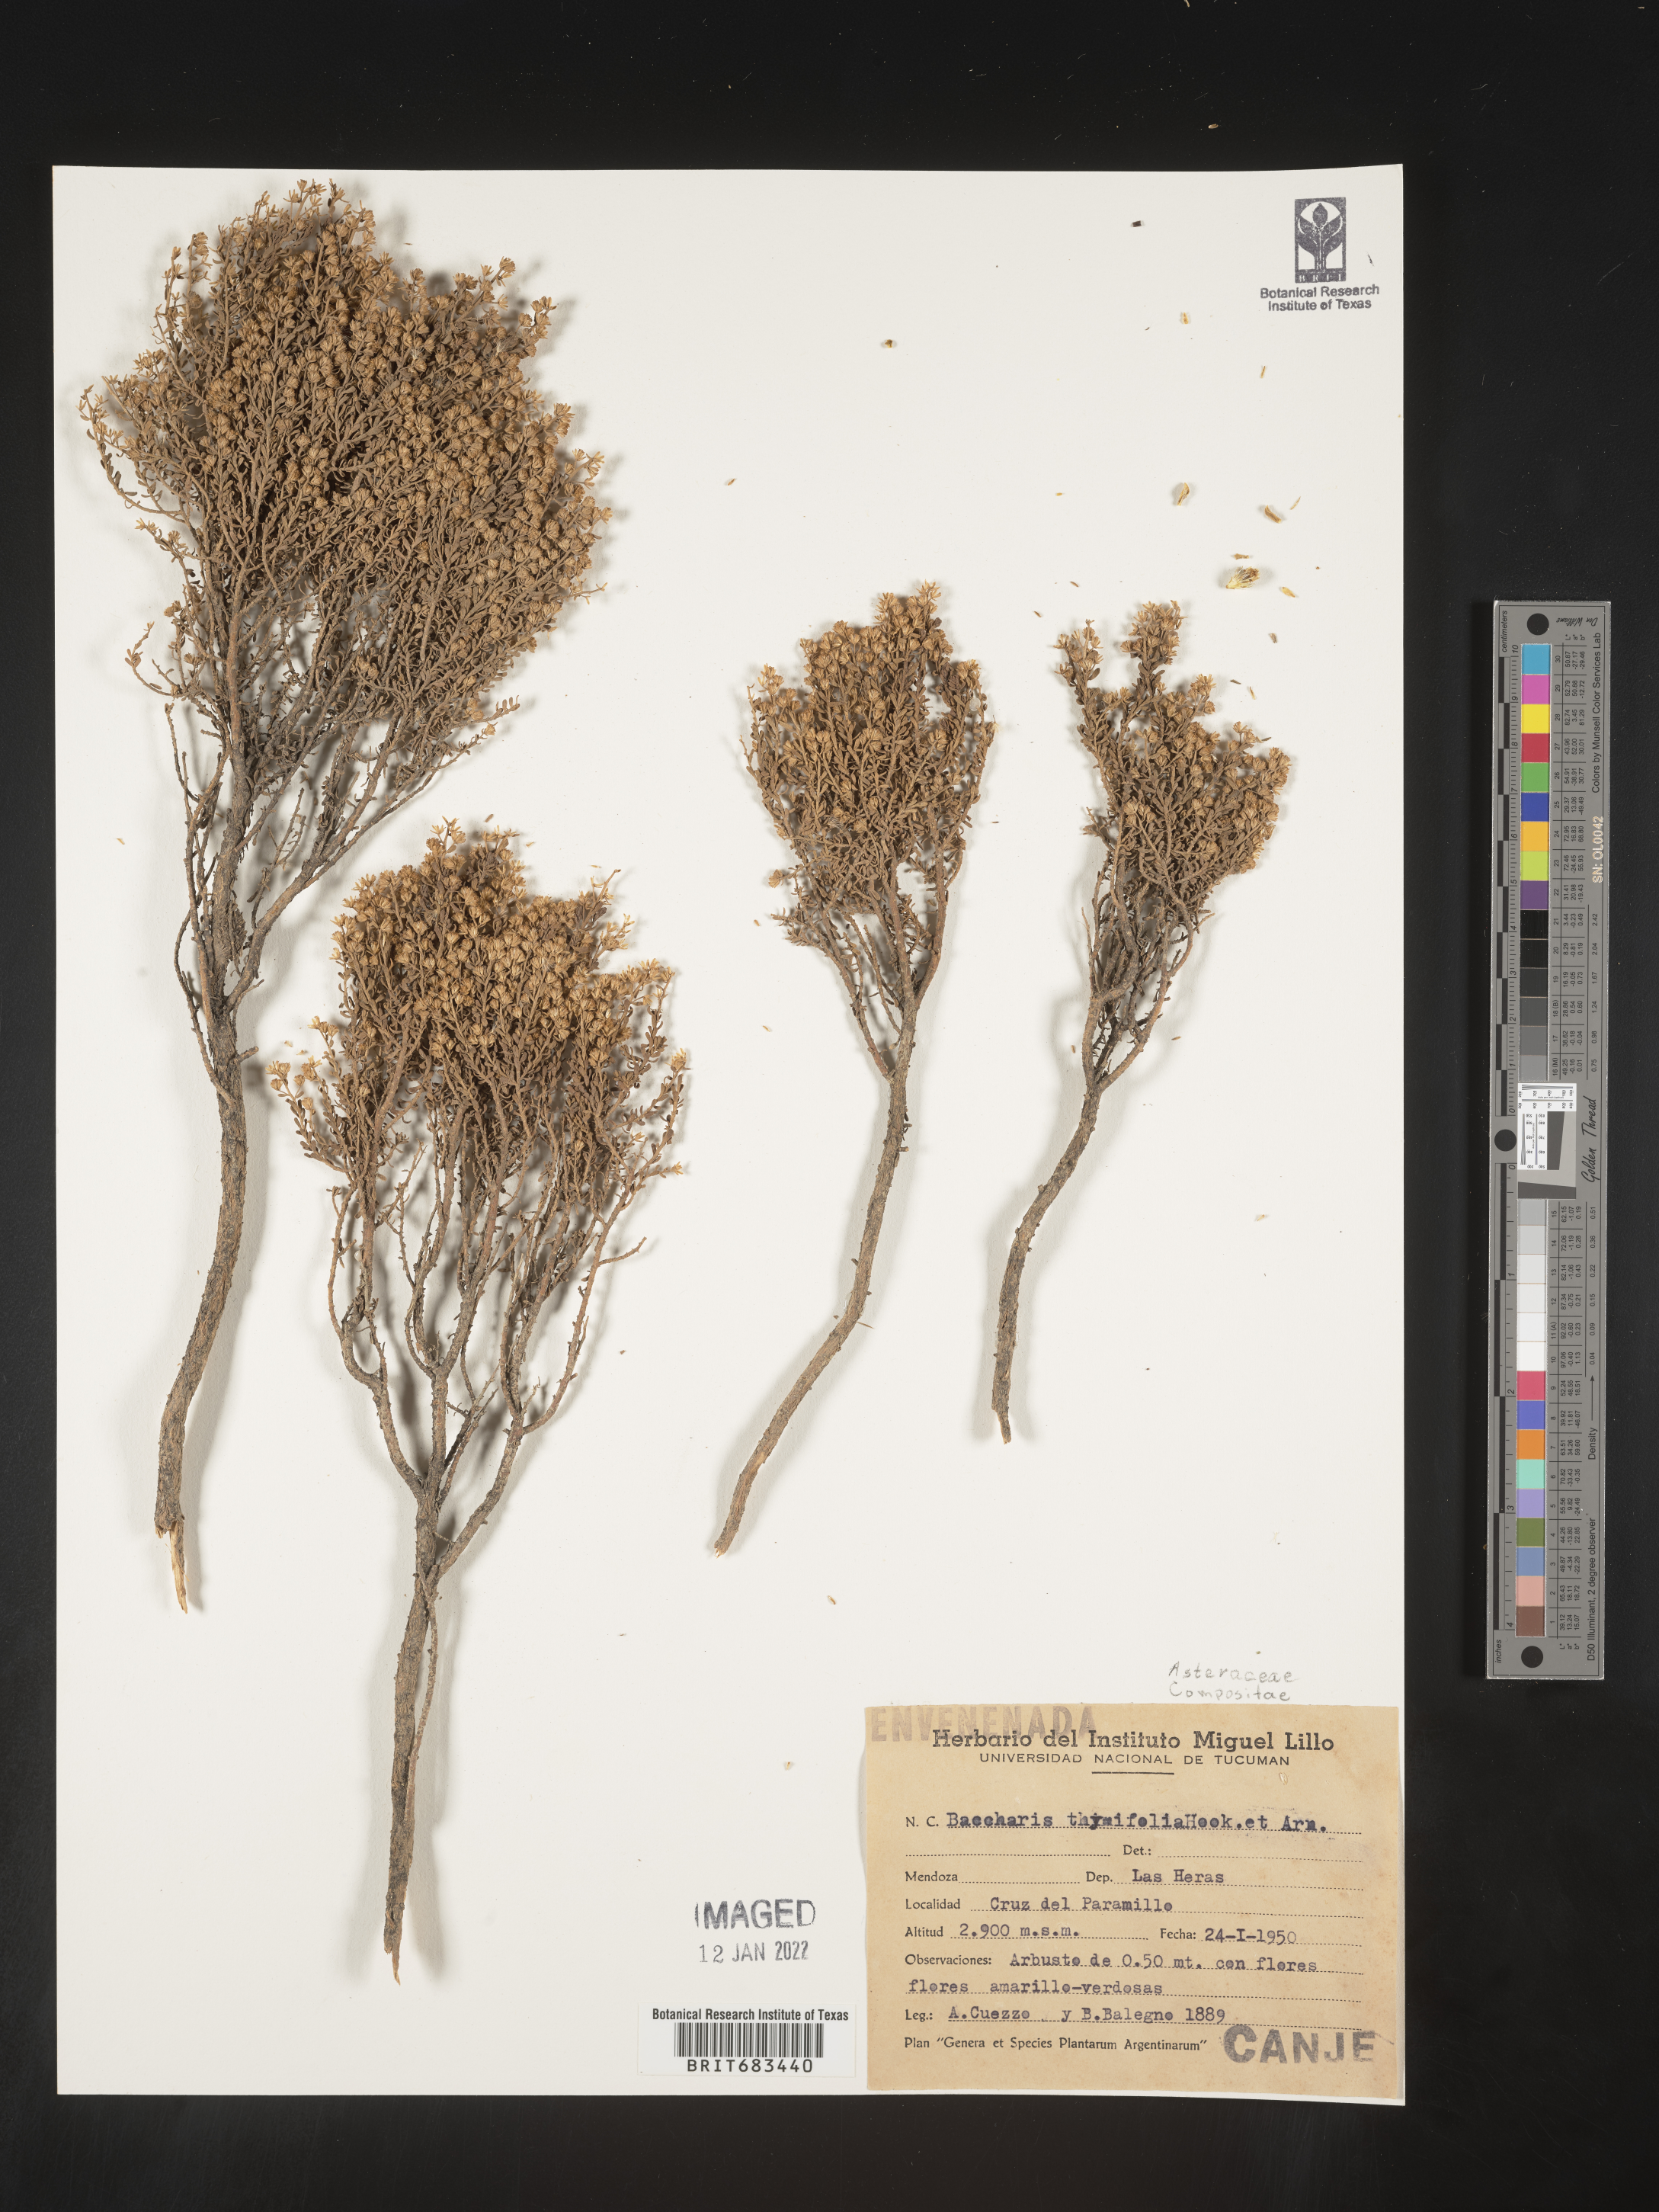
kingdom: Plantae
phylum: Tracheophyta
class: Magnoliopsida
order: Asterales
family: Asteraceae
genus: Baccharis
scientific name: Baccharis
